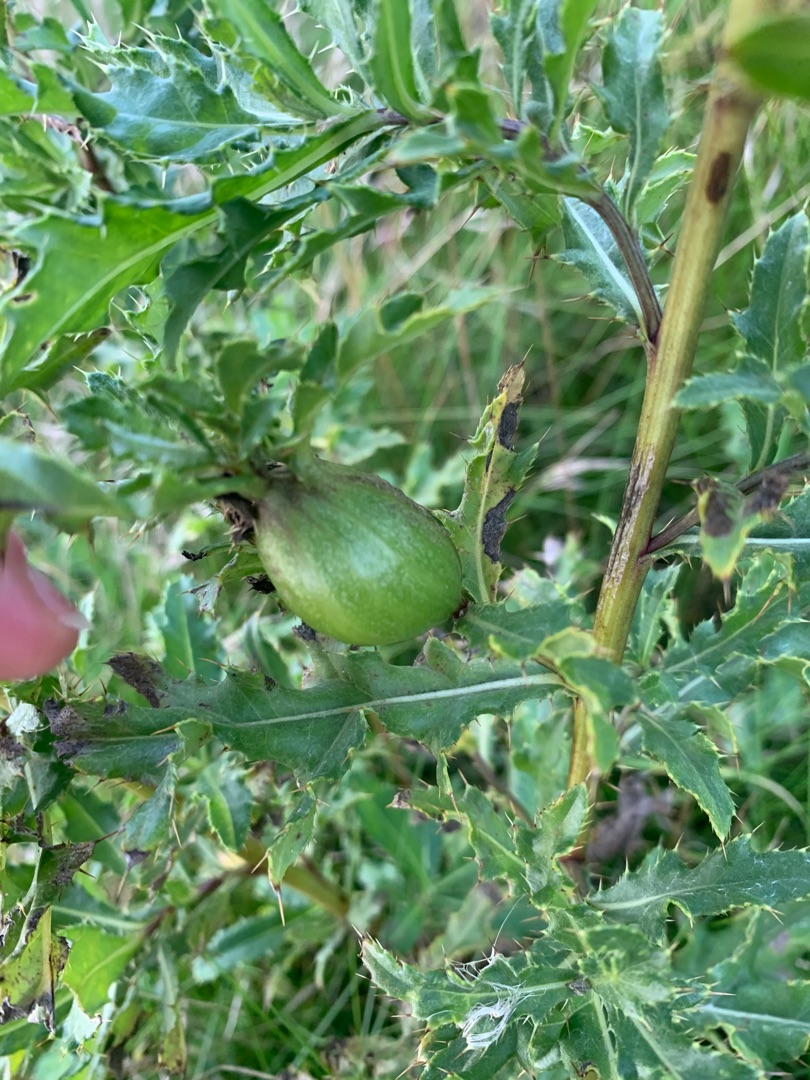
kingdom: Animalia
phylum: Arthropoda
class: Insecta
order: Diptera
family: Tephritidae
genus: Urophora
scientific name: Urophora cardui
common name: Tidselbåndflue
